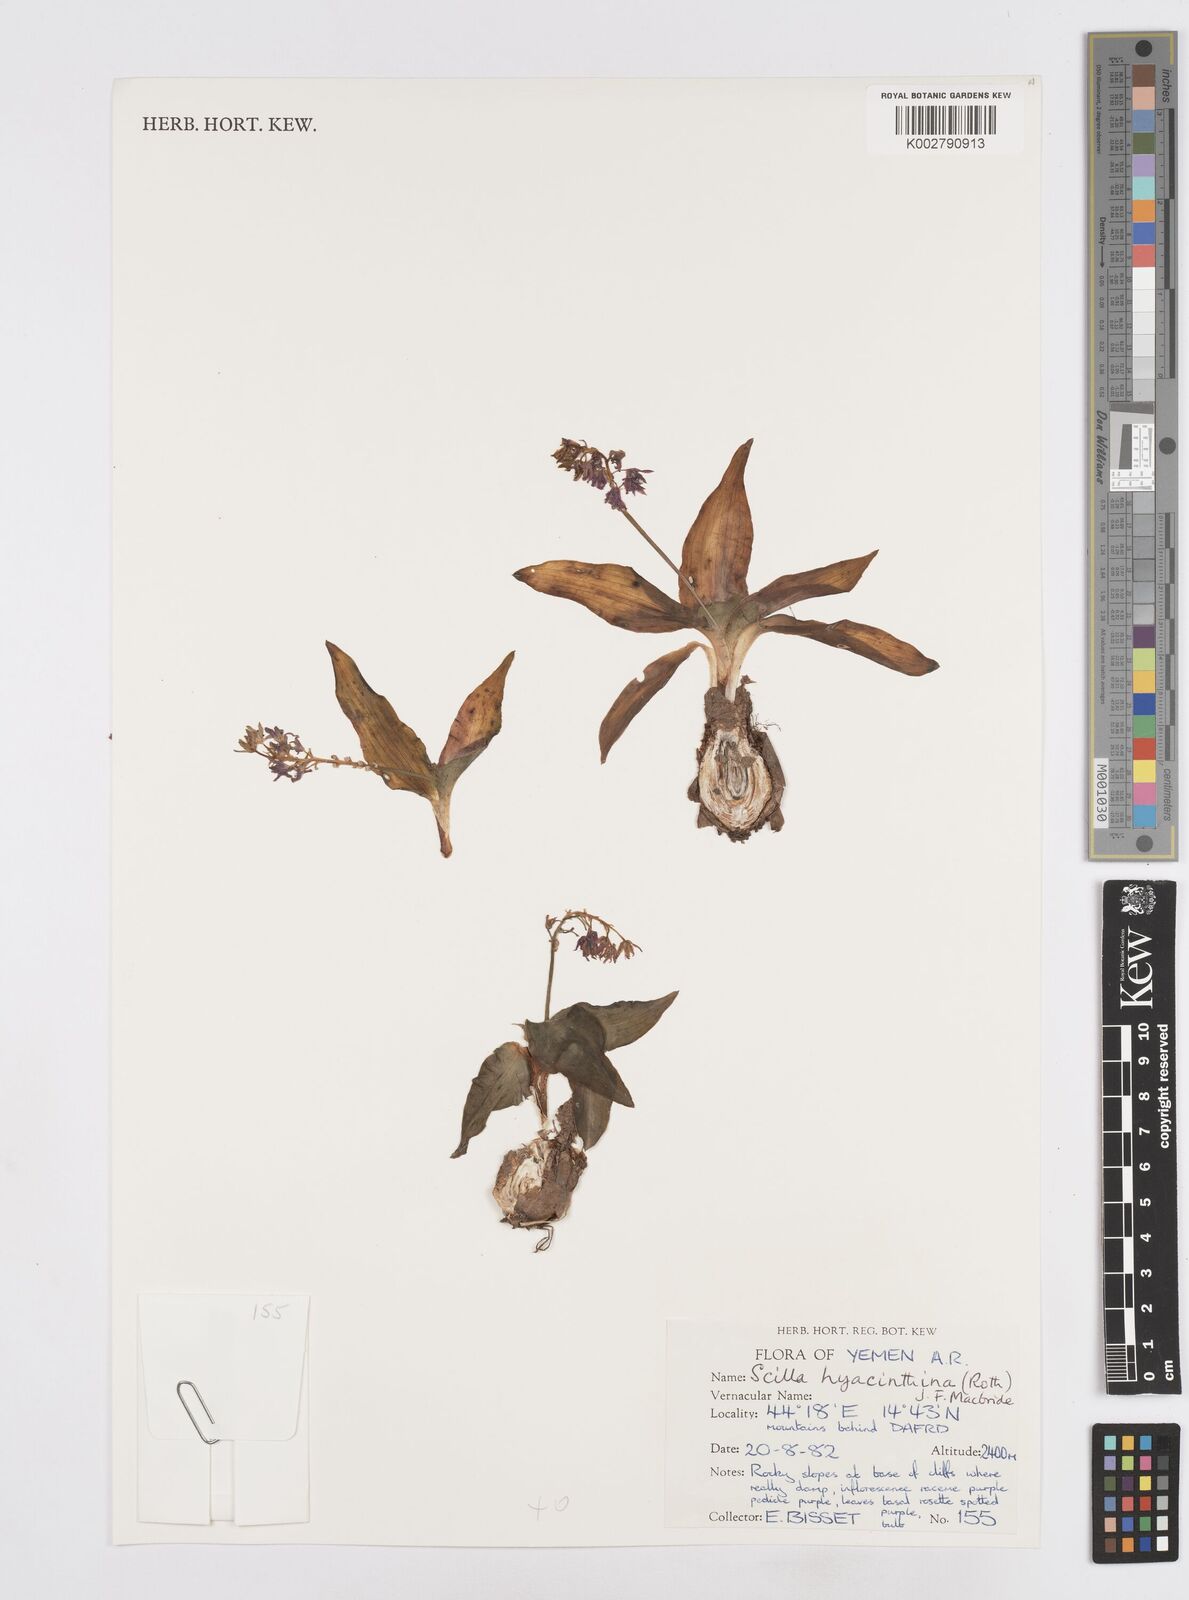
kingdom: Plantae
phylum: Tracheophyta
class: Liliopsida
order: Asparagales
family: Asparagaceae
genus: Ledebouria
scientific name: Ledebouria revoluta
